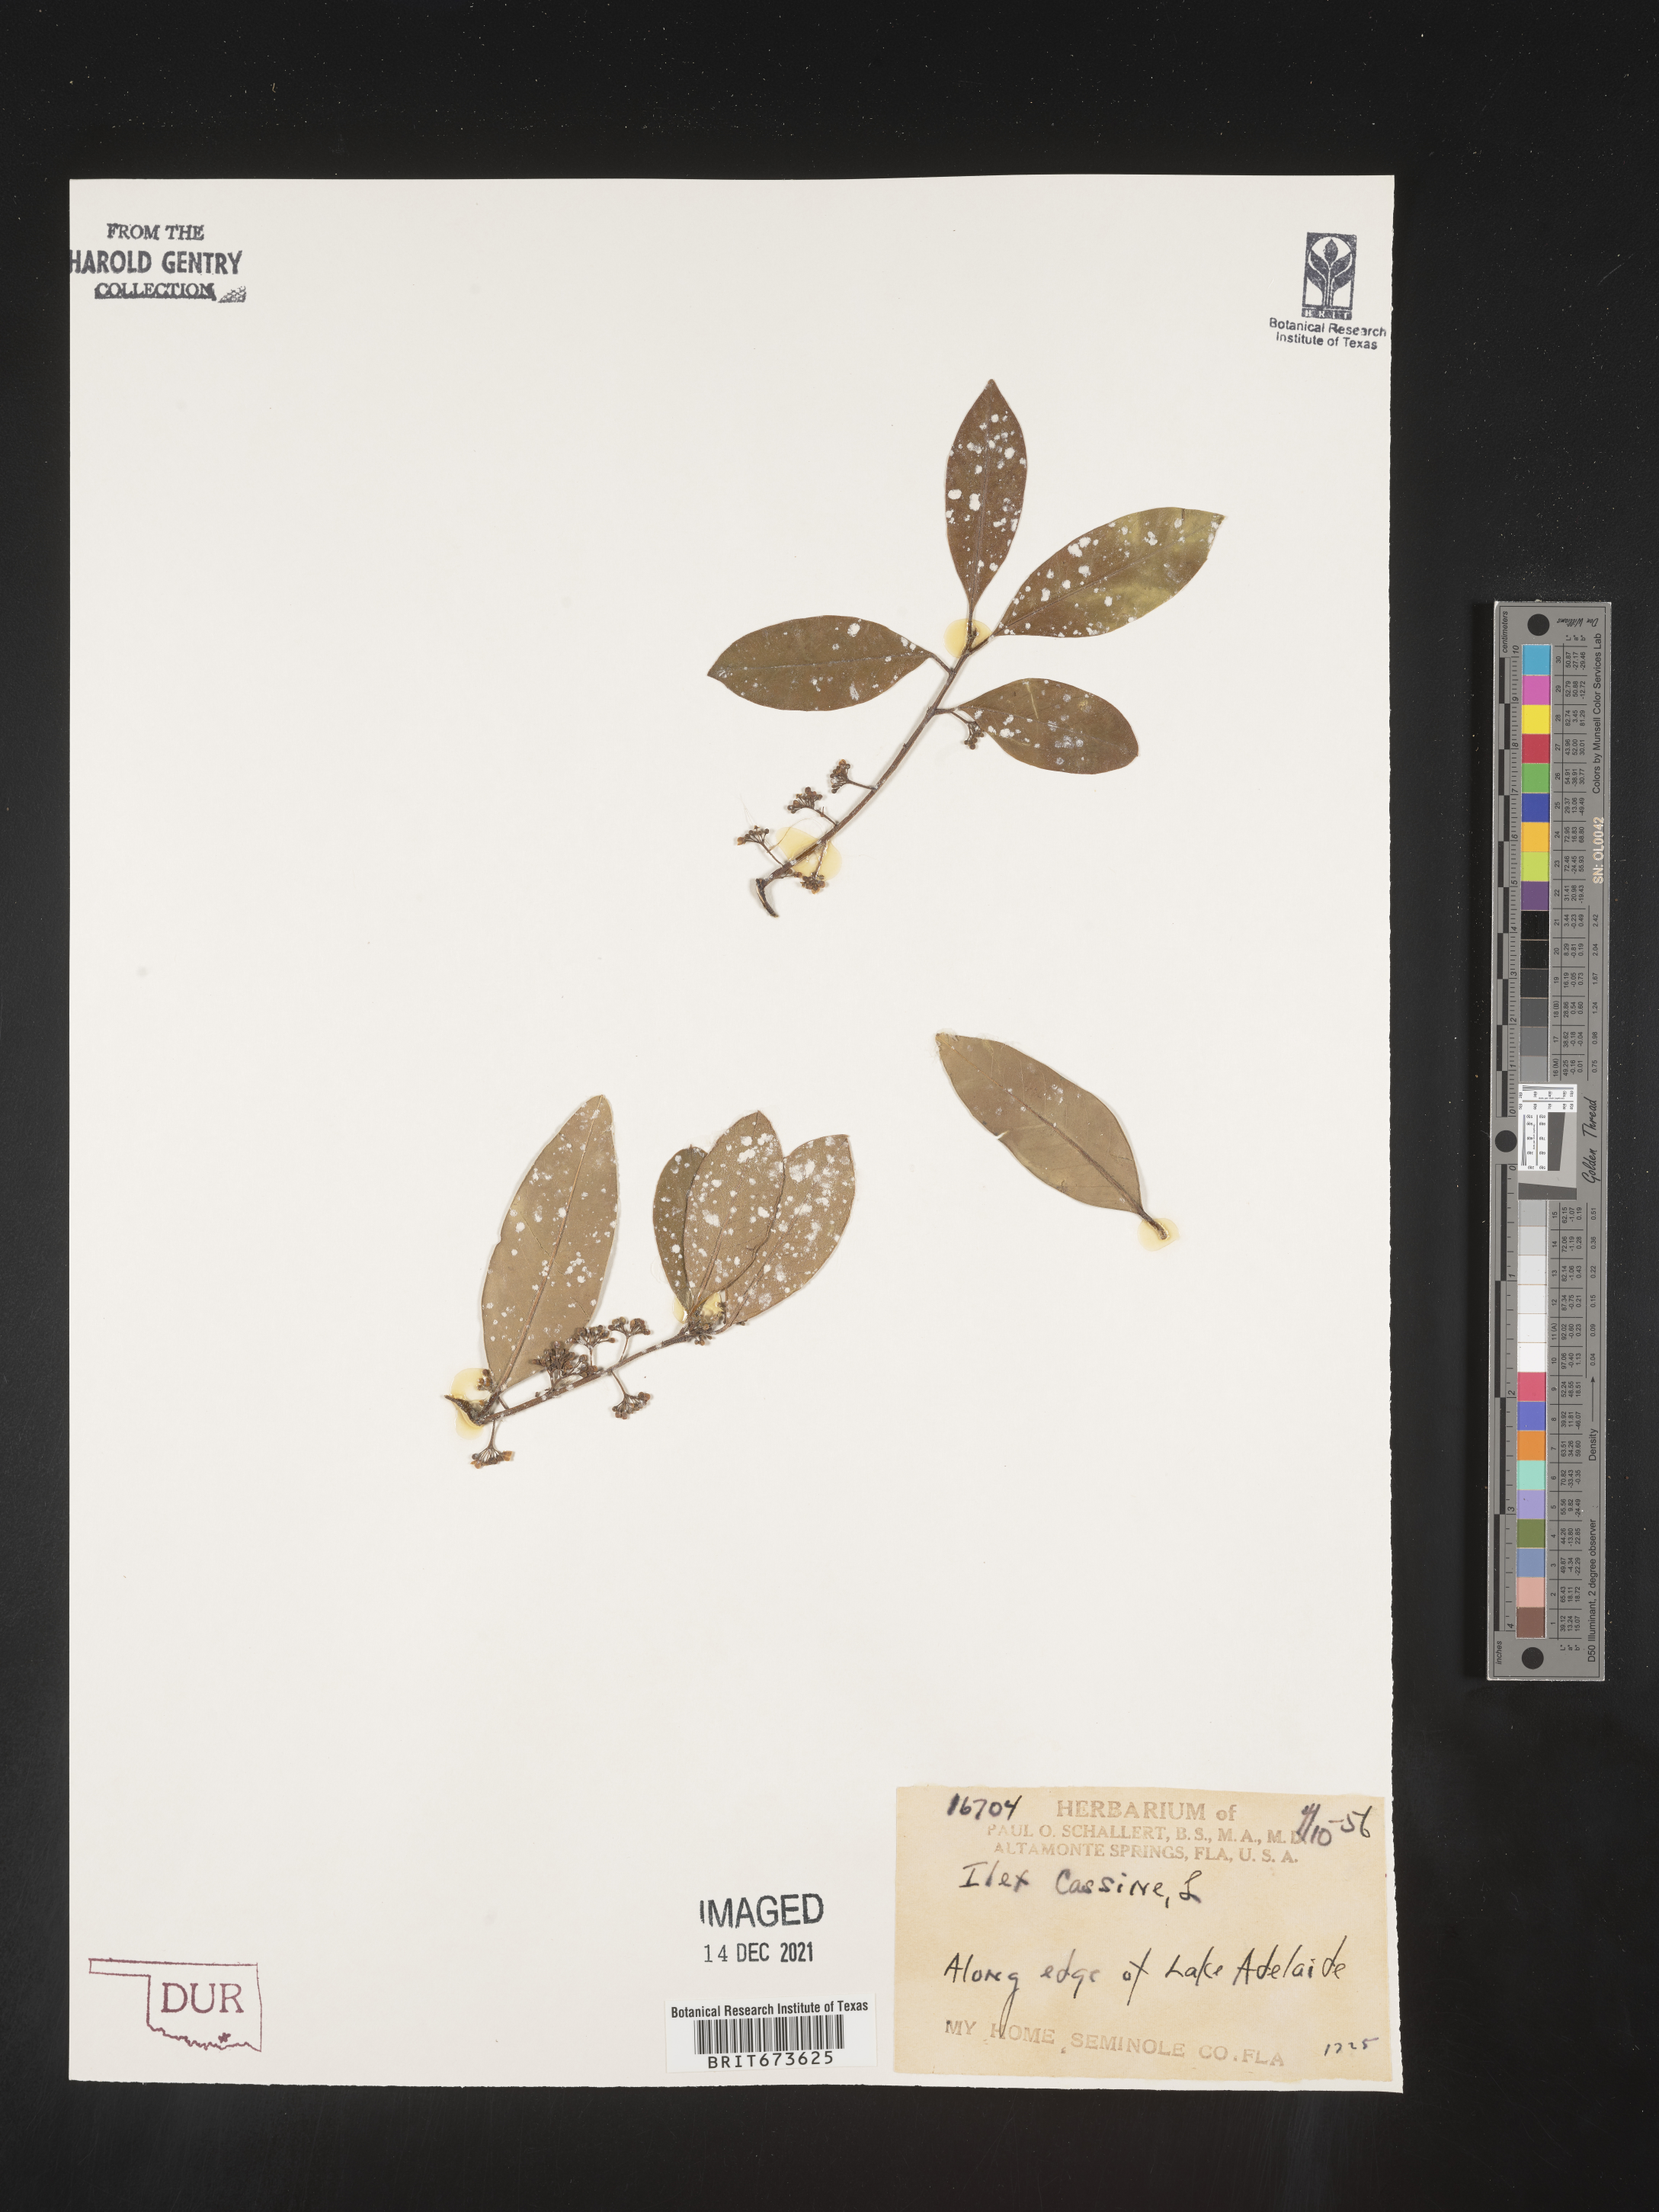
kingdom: Plantae
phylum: Tracheophyta
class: Magnoliopsida
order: Aquifoliales
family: Aquifoliaceae
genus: Ilex
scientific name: Ilex cassine
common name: Dahoon
